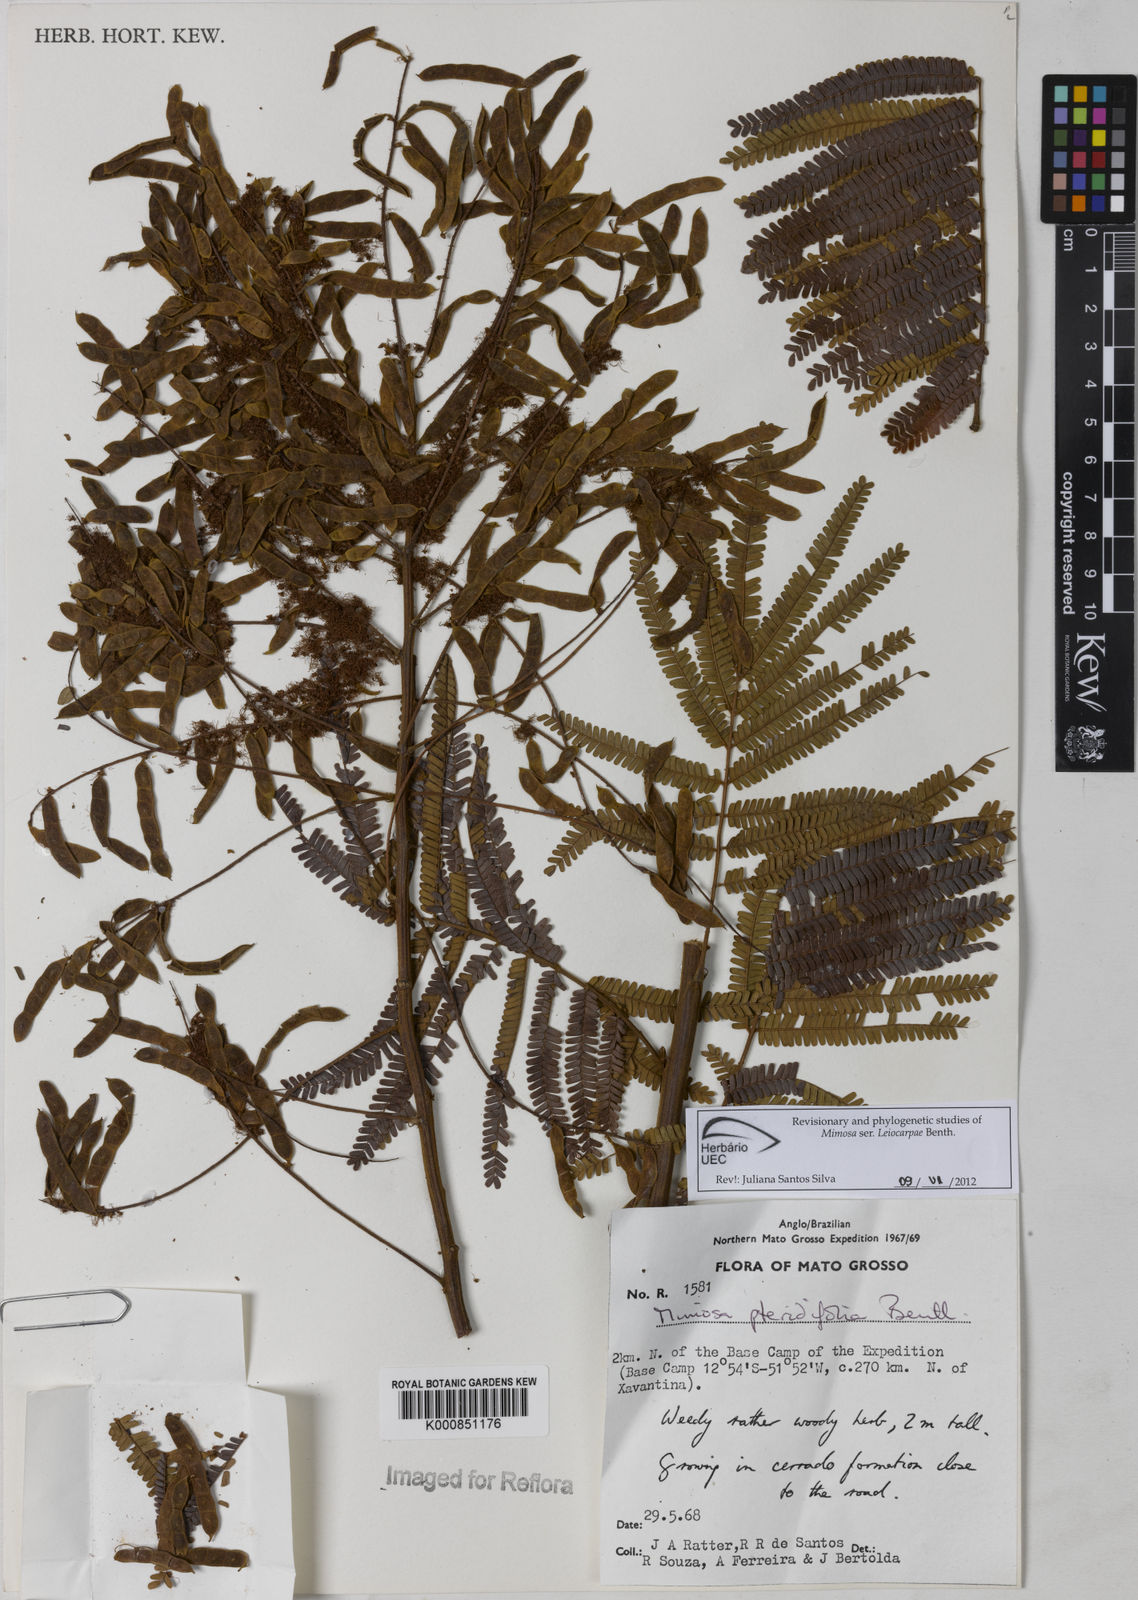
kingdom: Plantae
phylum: Tracheophyta
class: Magnoliopsida
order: Fabales
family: Fabaceae
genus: Mimosa
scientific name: Mimosa pteridifolia
